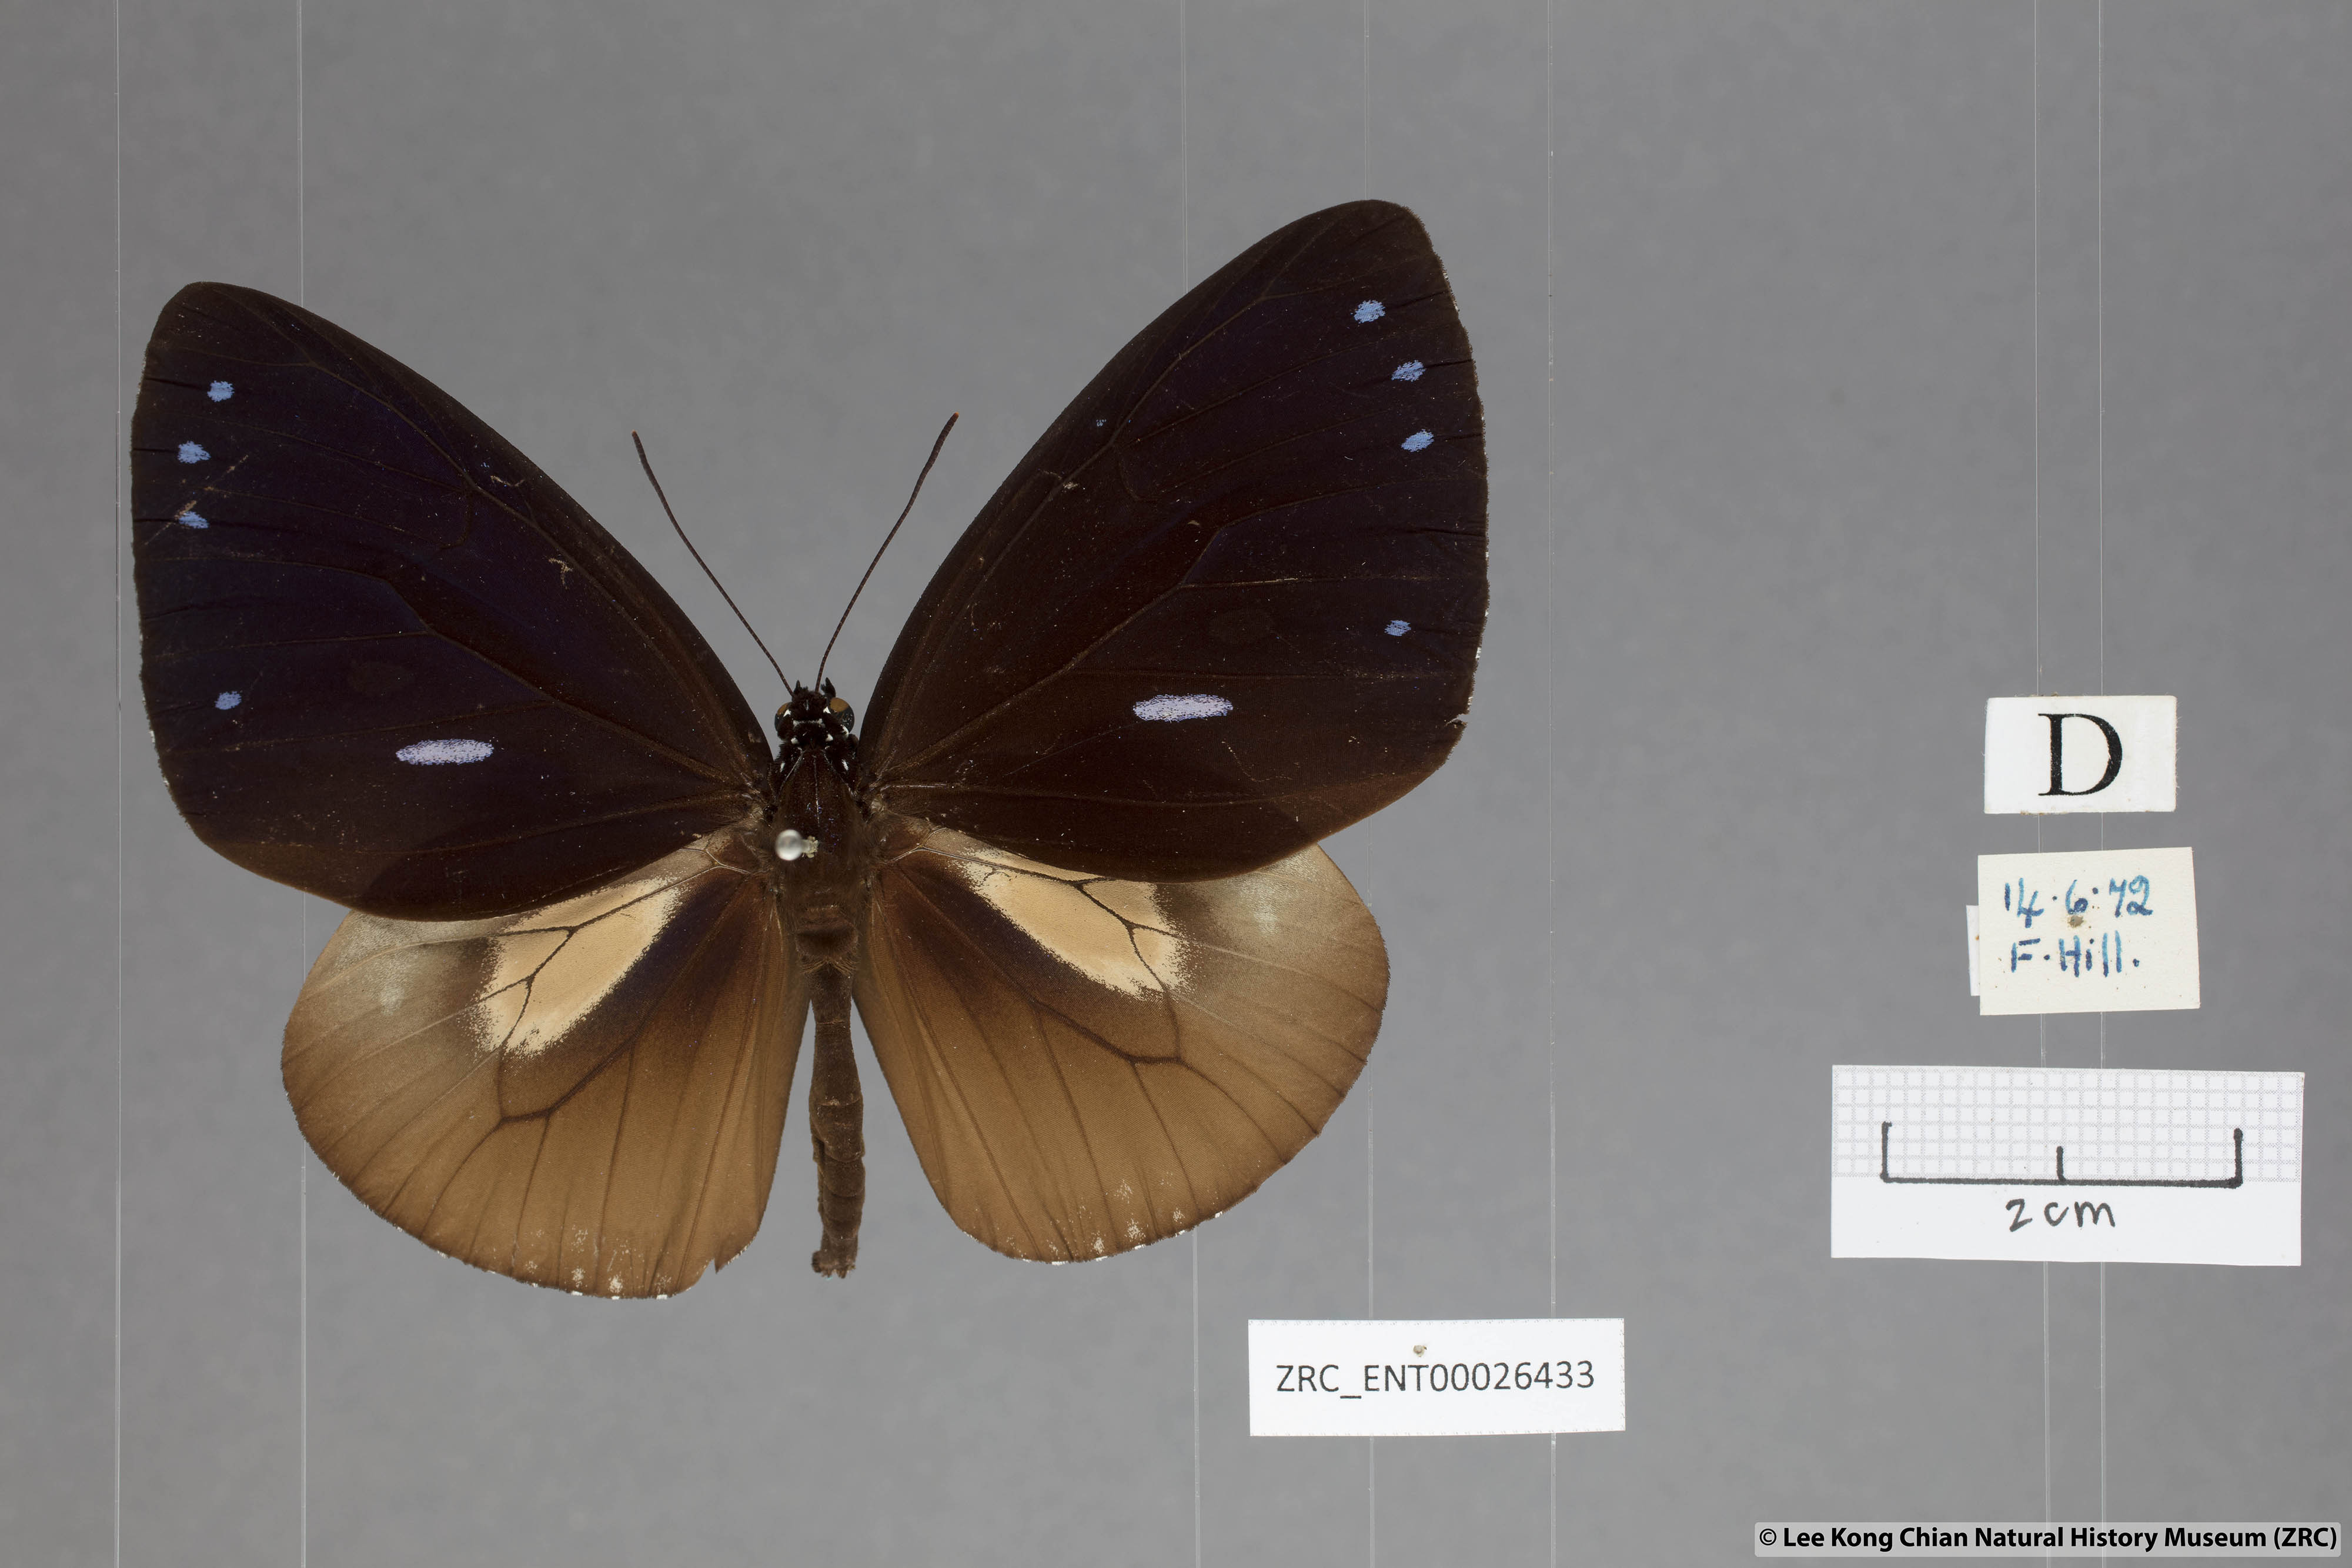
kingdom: Animalia
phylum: Arthropoda
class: Insecta
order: Lepidoptera
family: Nymphalidae
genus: Euploea
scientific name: Euploea eunice
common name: Blue-banded king crow butterfly
